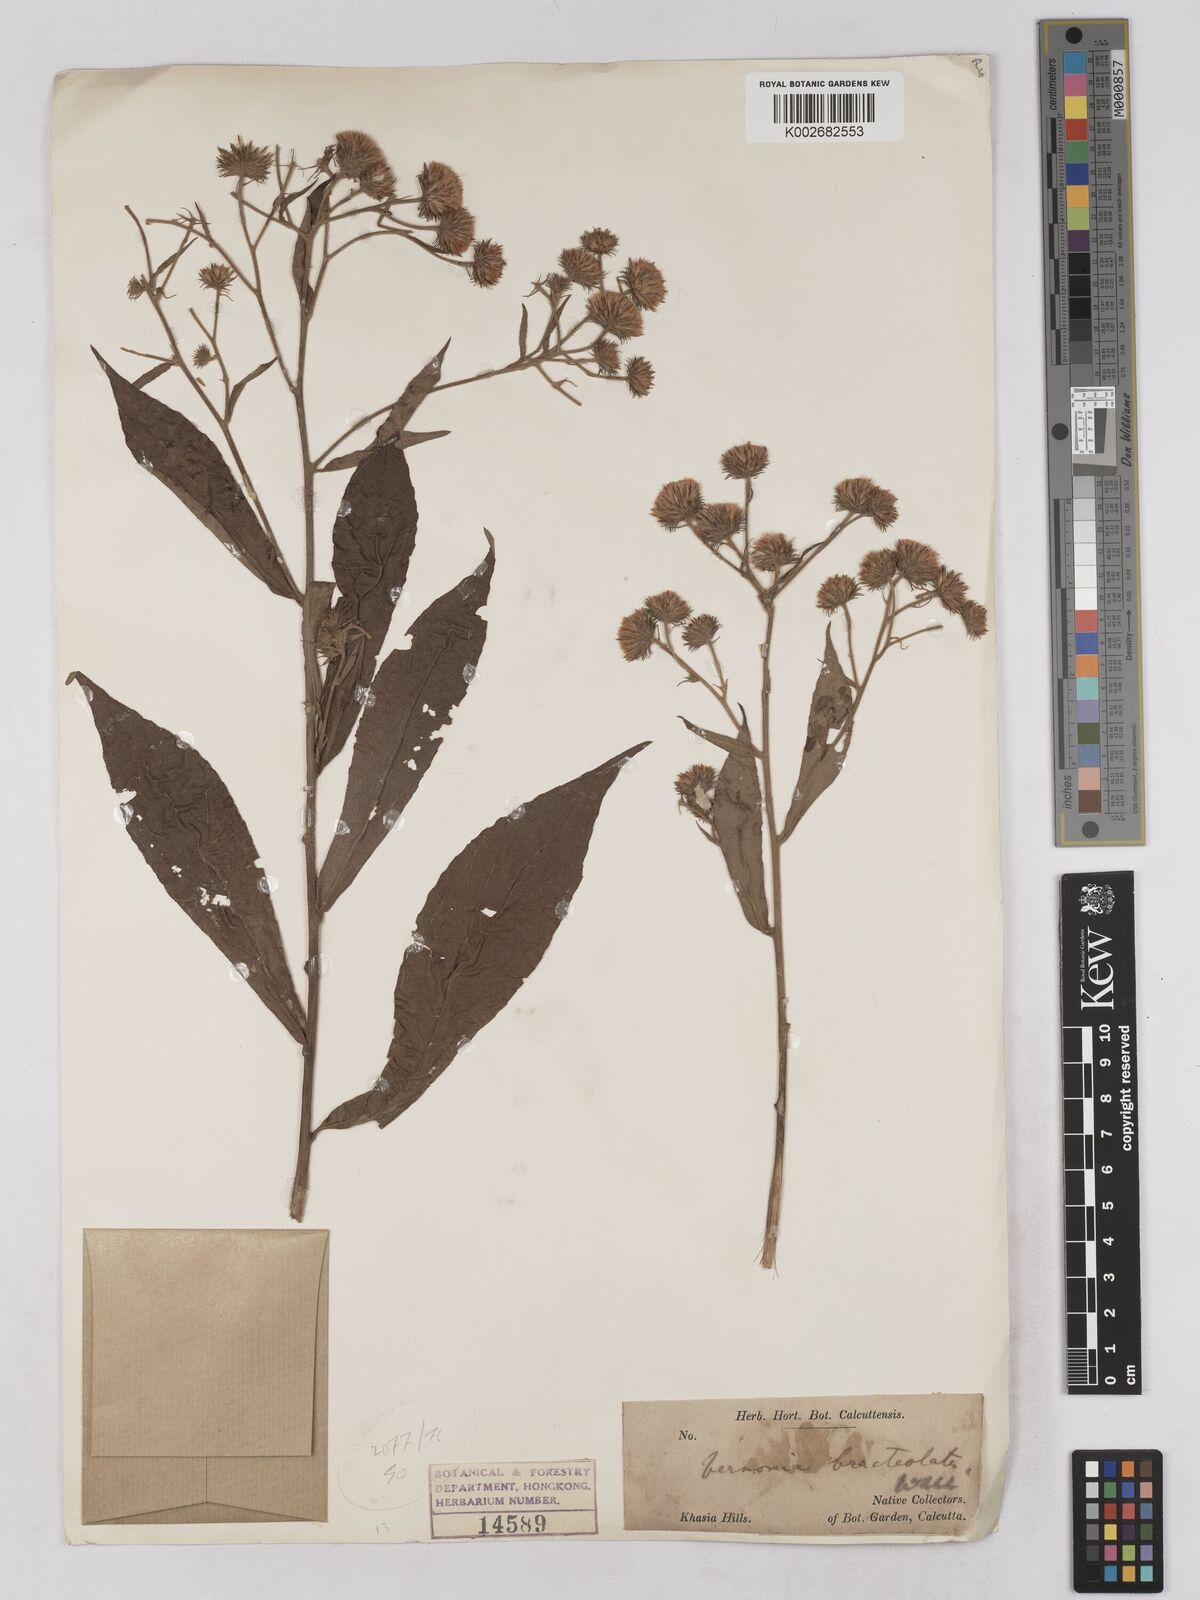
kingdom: Plantae
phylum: Tracheophyta
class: Magnoliopsida
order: Asterales
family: Asteraceae
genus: Acilepis
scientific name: Acilepis silhetensis
